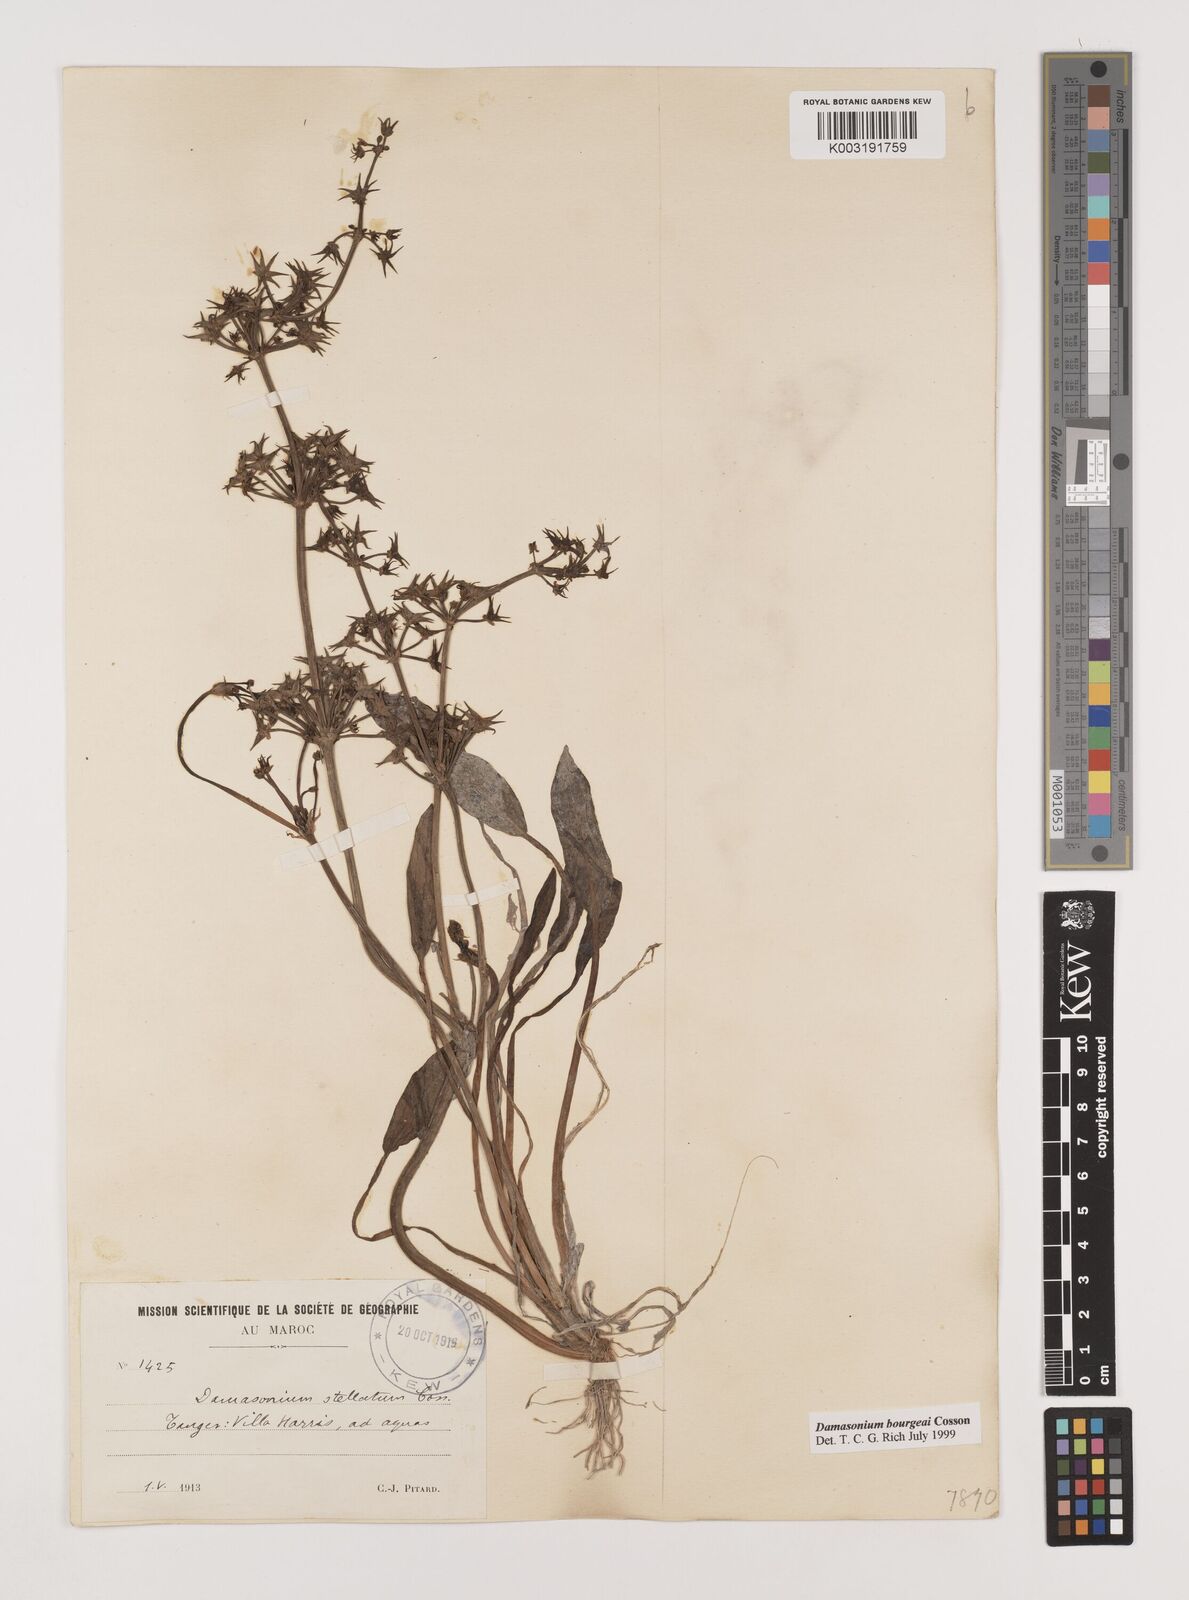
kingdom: Plantae
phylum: Tracheophyta
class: Liliopsida
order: Alismatales
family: Alismataceae
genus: Damasonium
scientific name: Damasonium bourgaei
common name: Starfruit
